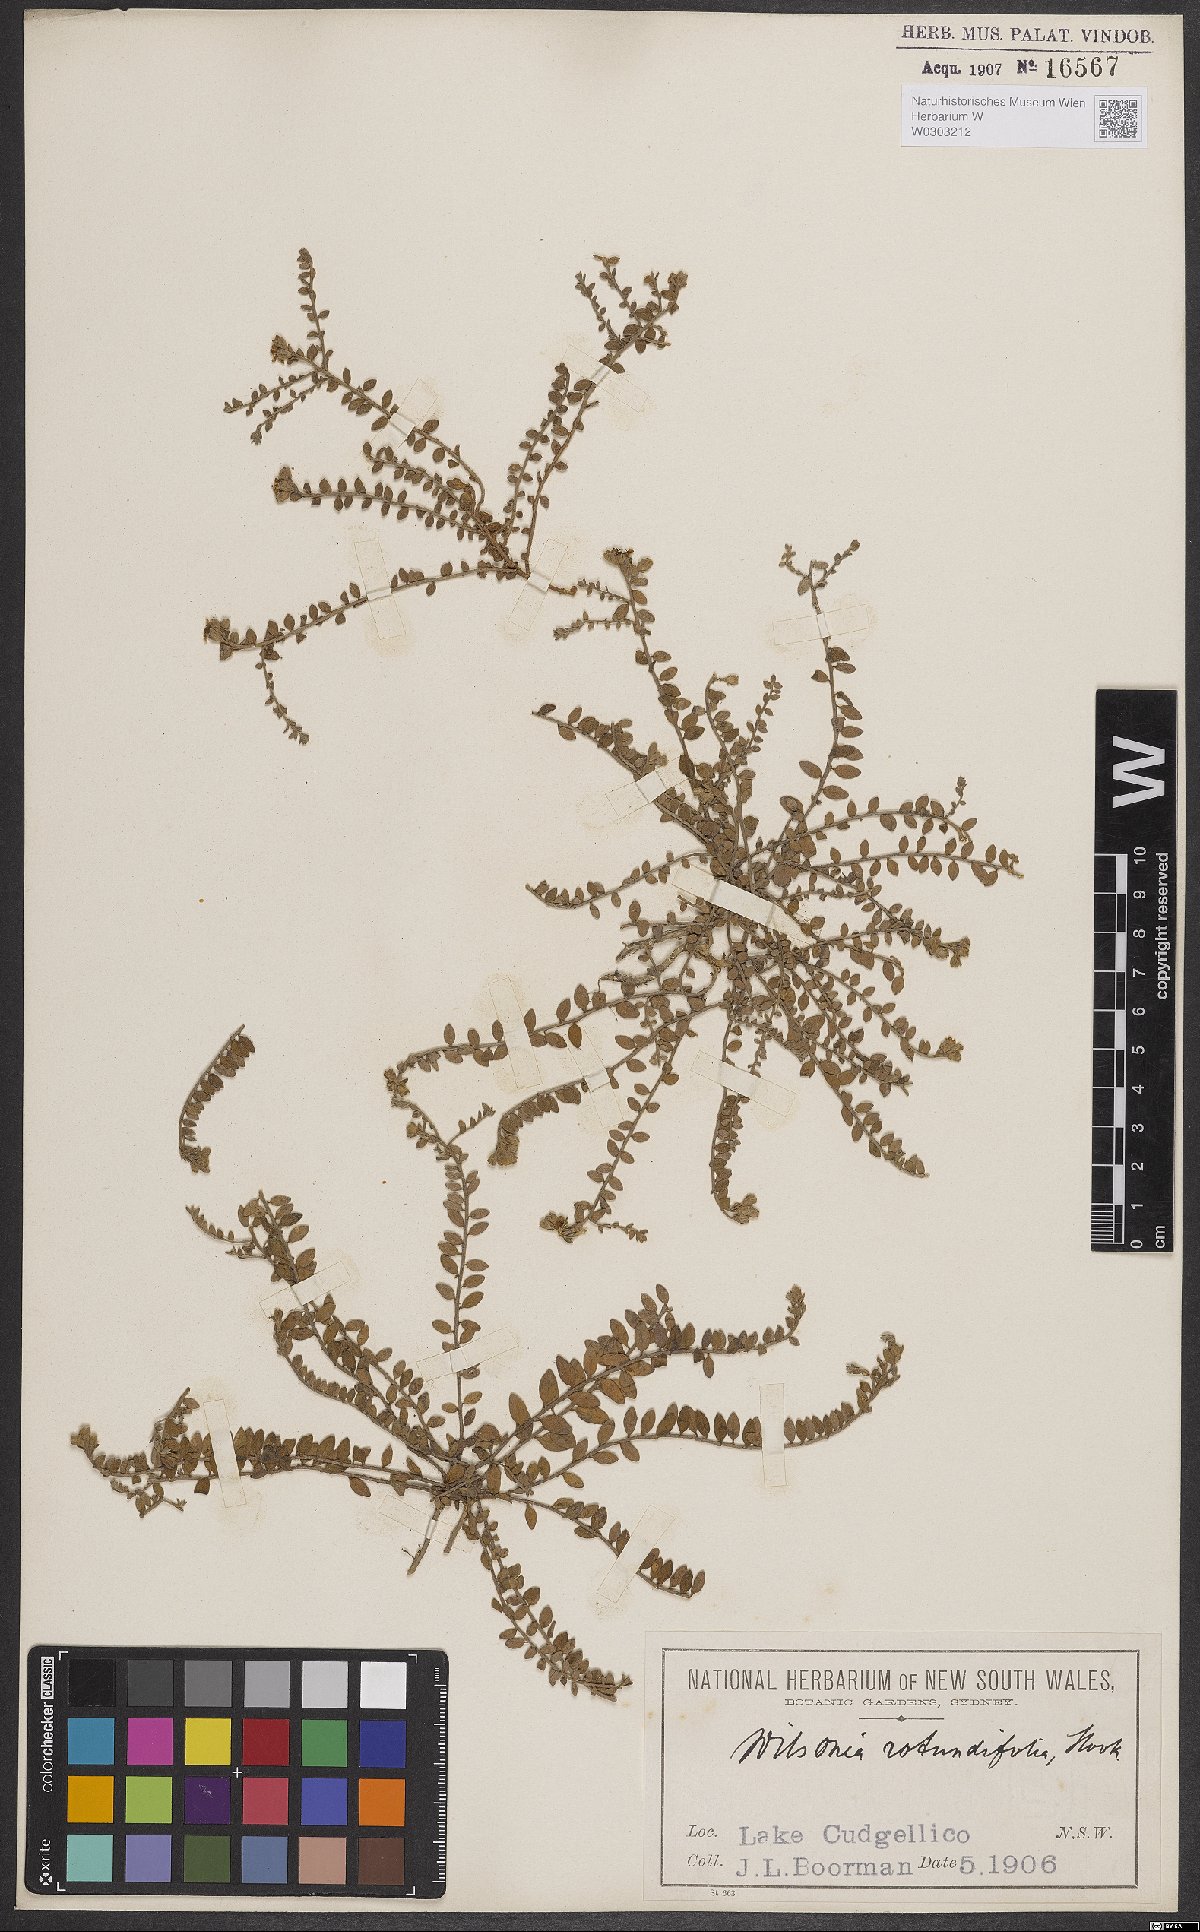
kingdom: Plantae
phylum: Tracheophyta
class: Magnoliopsida
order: Solanales
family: Convolvulaceae
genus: Wilsonia
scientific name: Wilsonia rotundifolia
